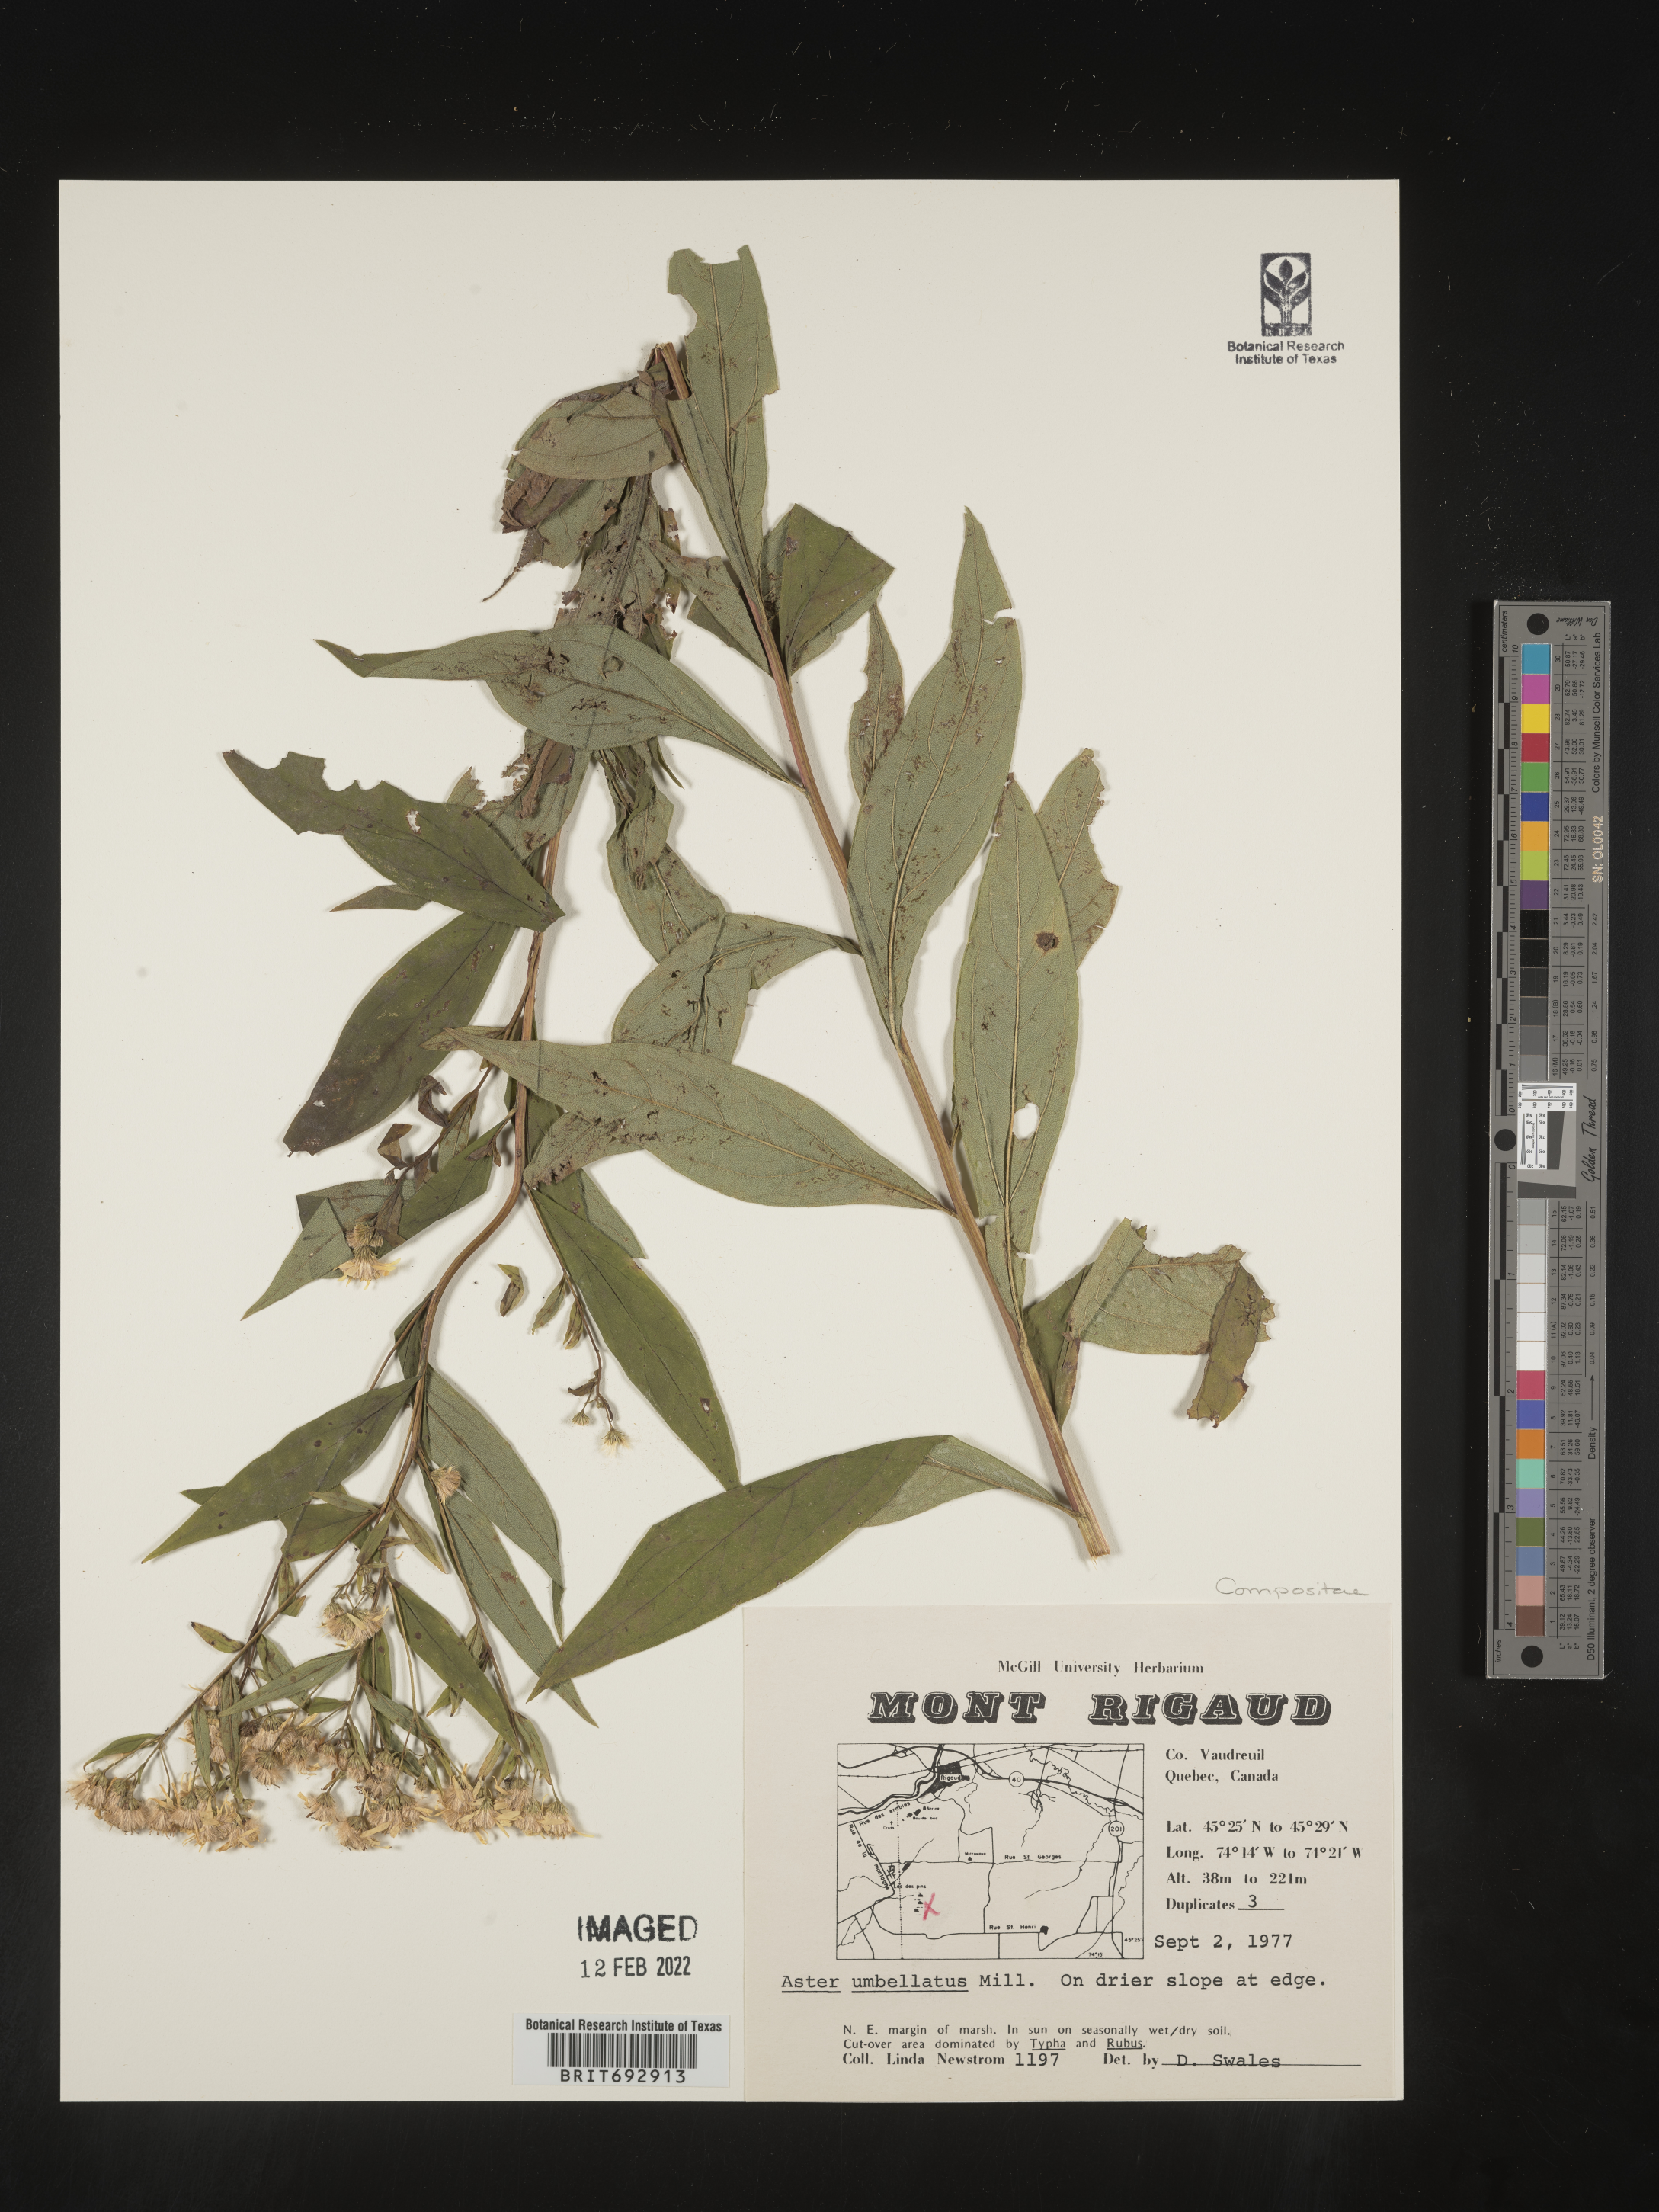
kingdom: Plantae
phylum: Tracheophyta
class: Magnoliopsida
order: Asterales
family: Asteraceae
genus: Doellingeria
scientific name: Doellingeria umbellata
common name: Flat-top white aster
